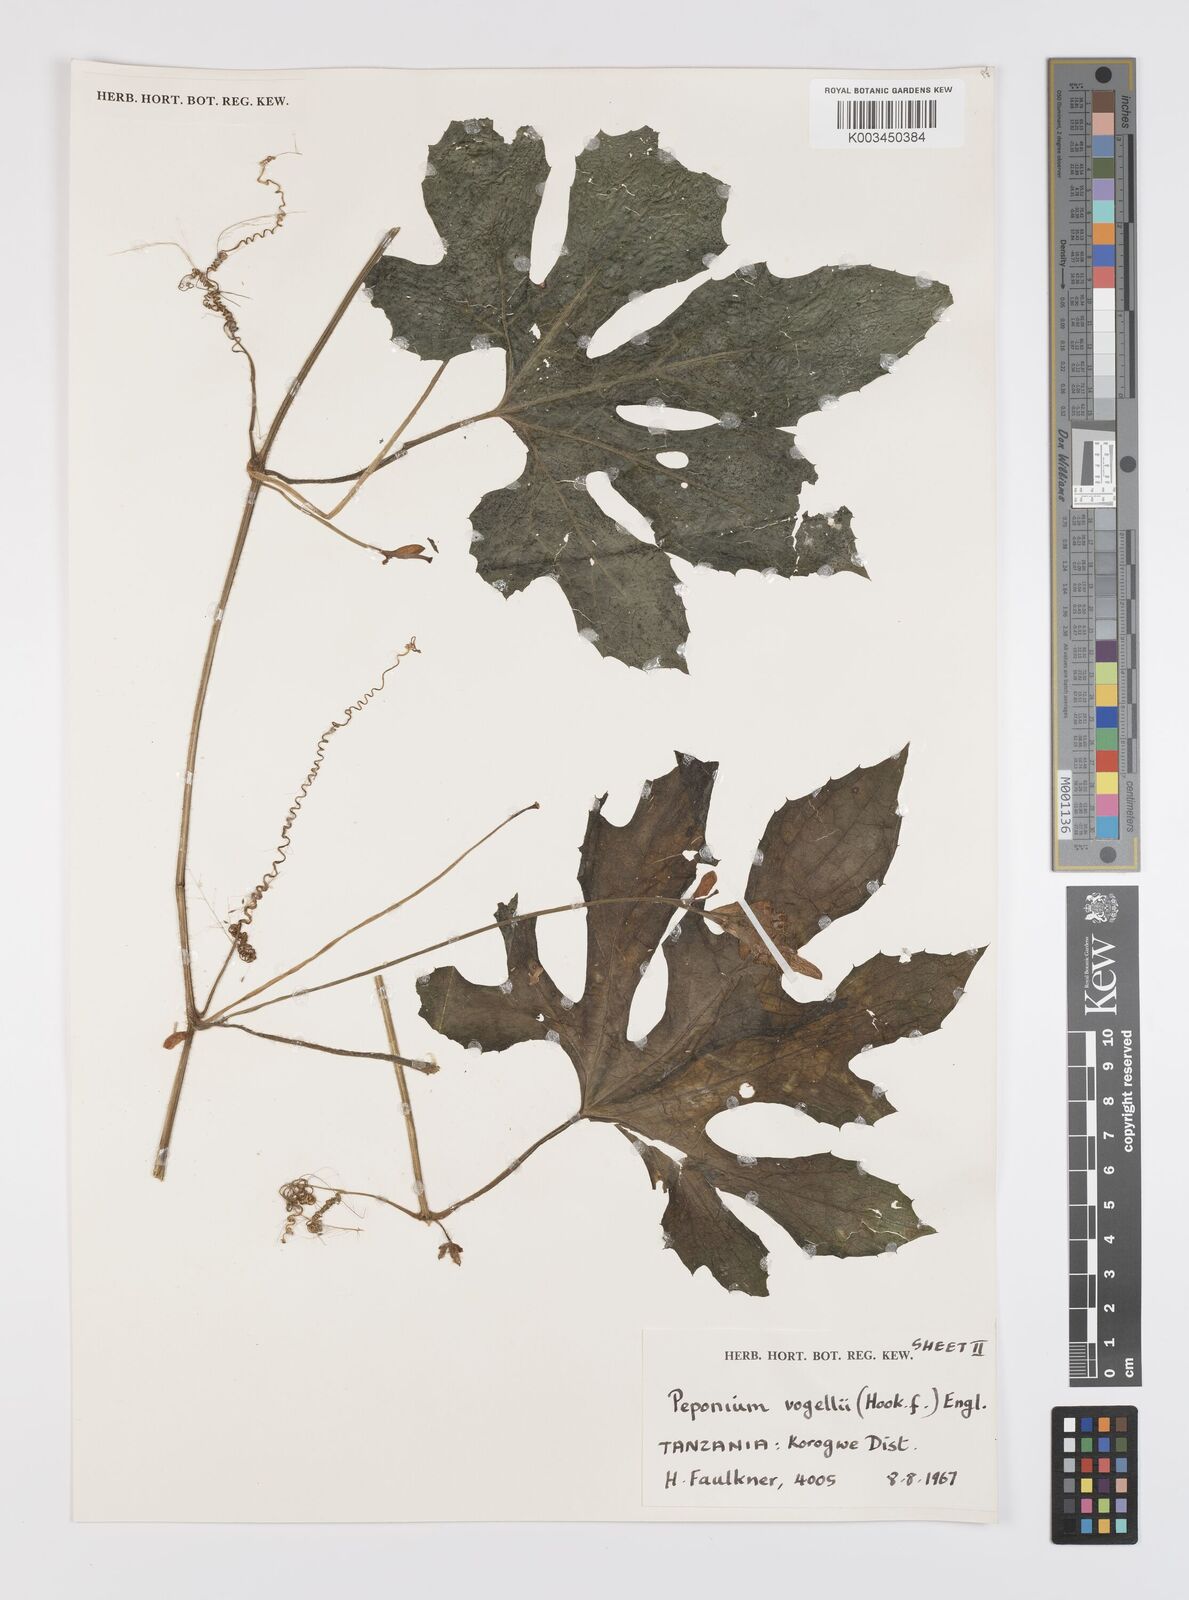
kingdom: Plantae
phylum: Tracheophyta
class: Magnoliopsida
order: Cucurbitales
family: Cucurbitaceae
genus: Peponium
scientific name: Peponium vogelii
